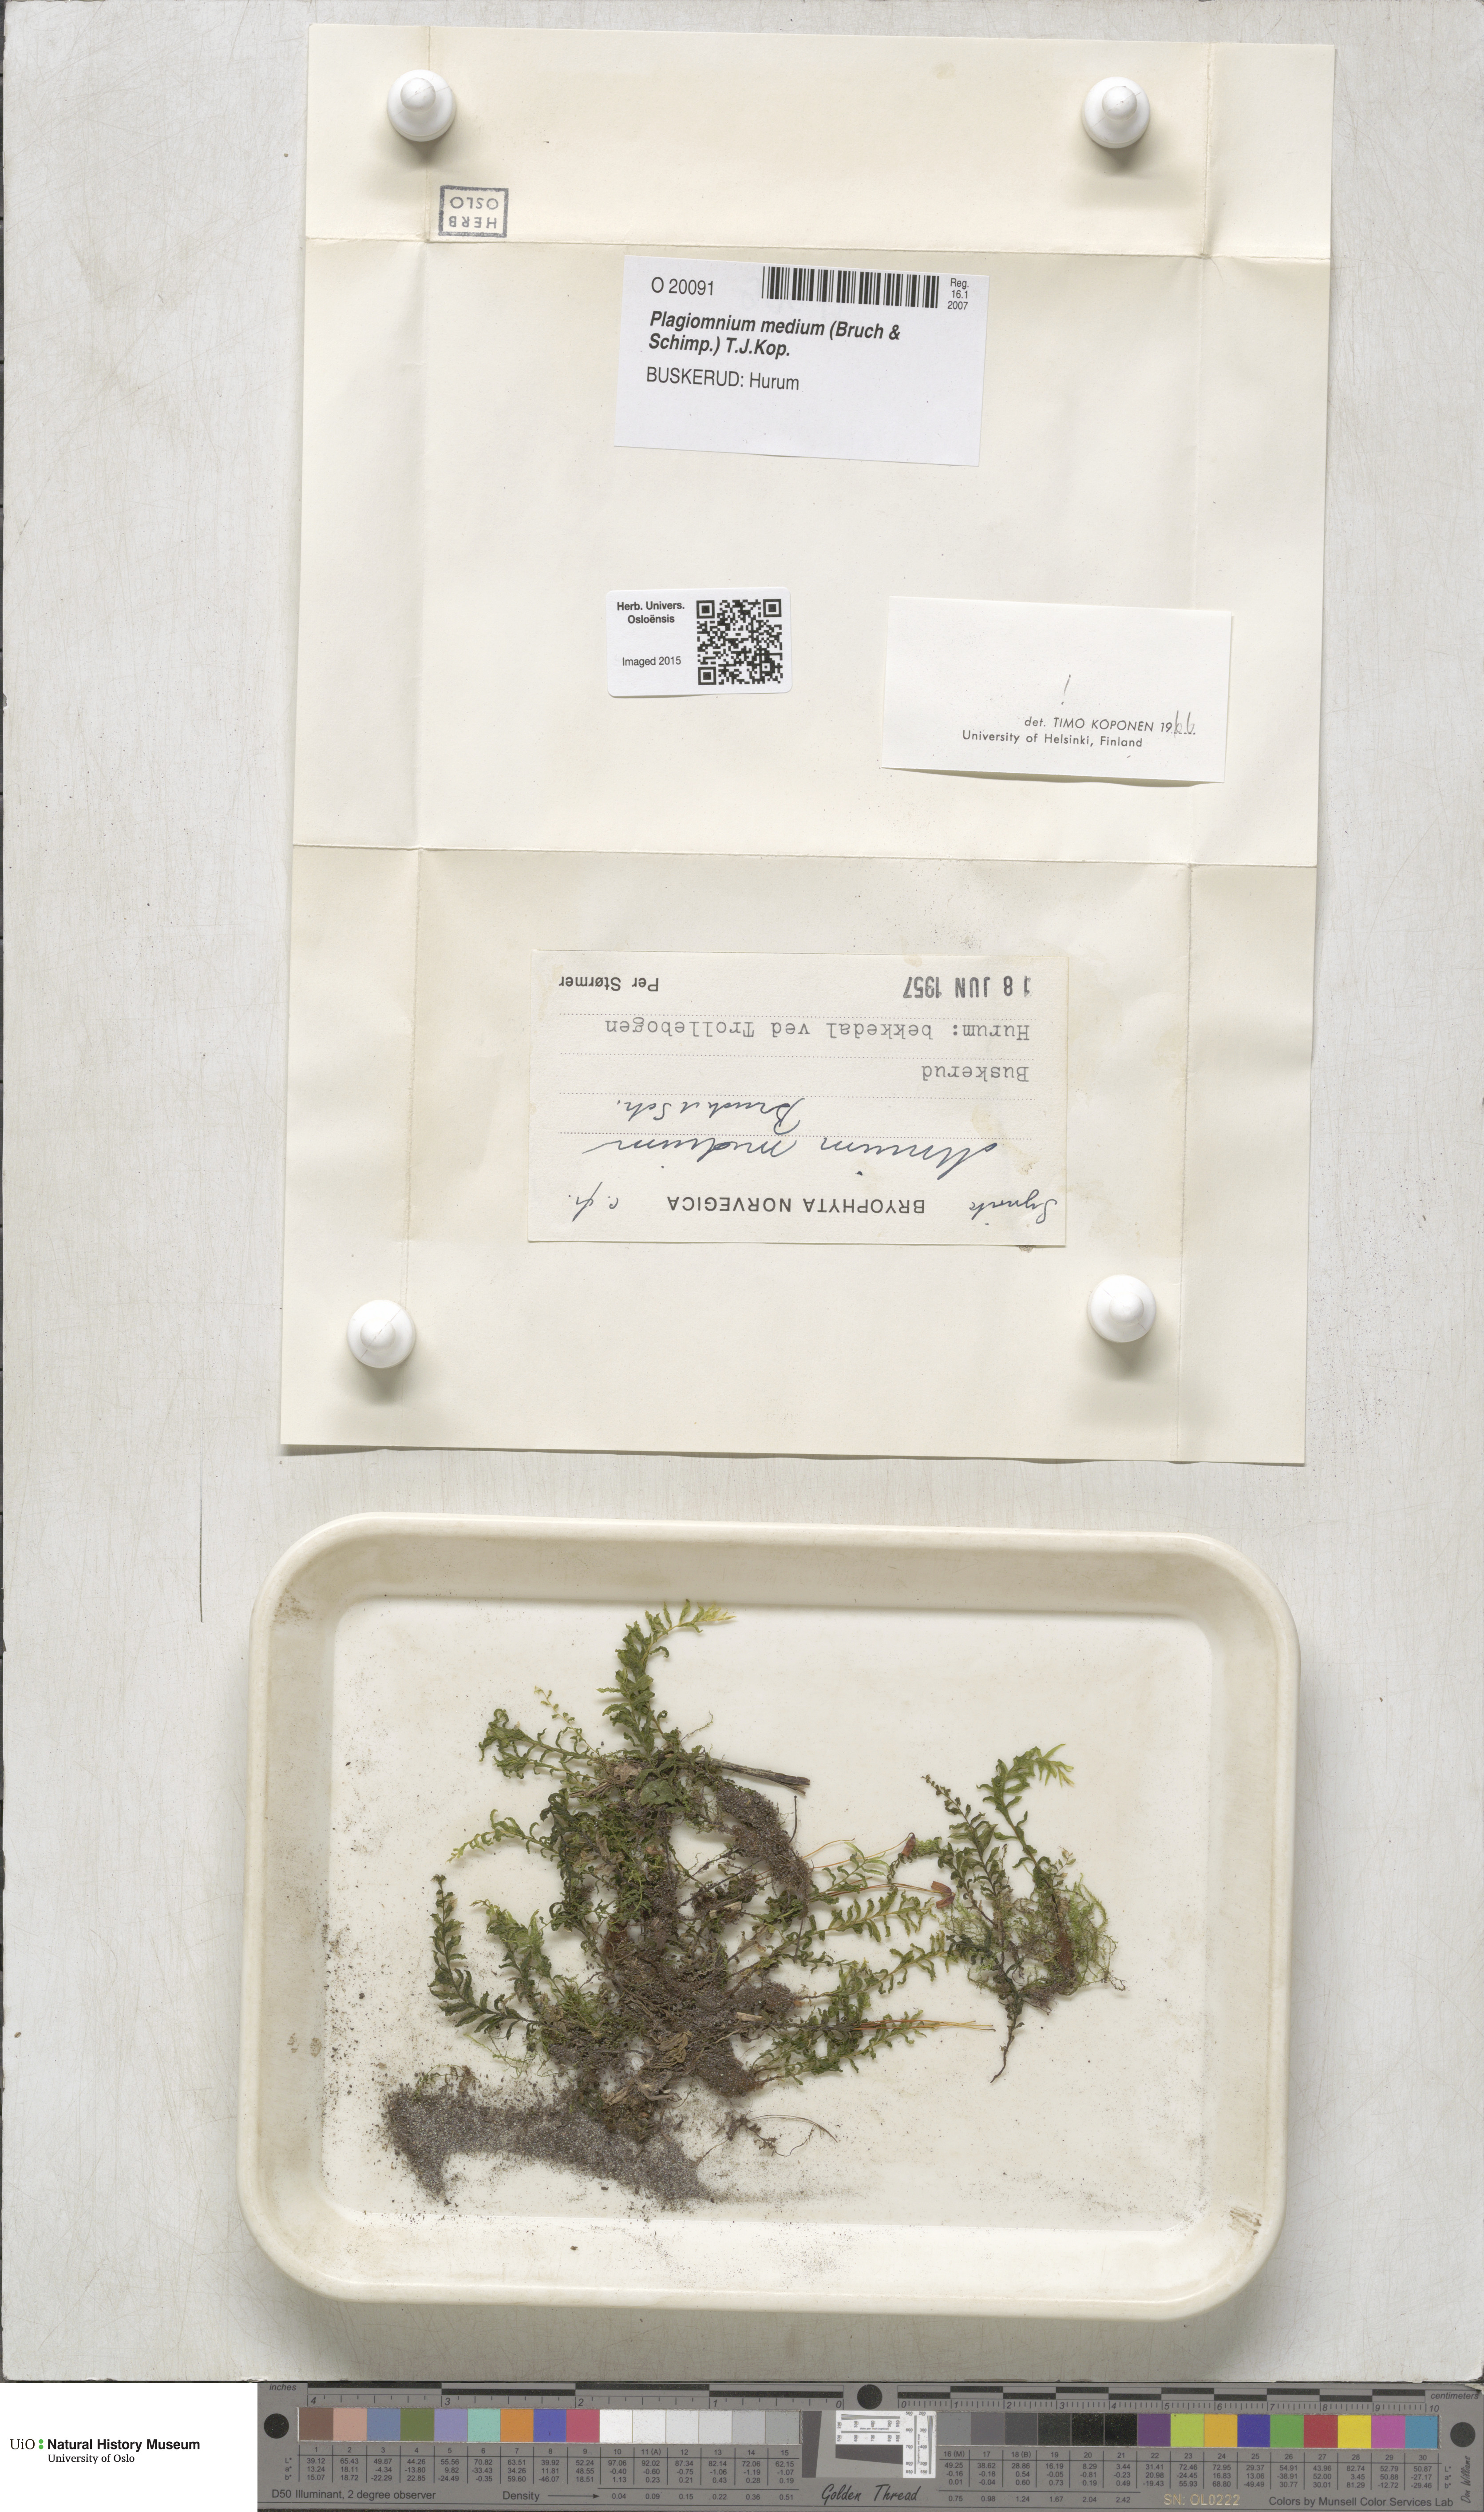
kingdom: Plantae
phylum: Bryophyta
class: Bryopsida
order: Bryales
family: Mniaceae
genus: Plagiomnium
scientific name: Plagiomnium medium
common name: Alpine leafy moss
